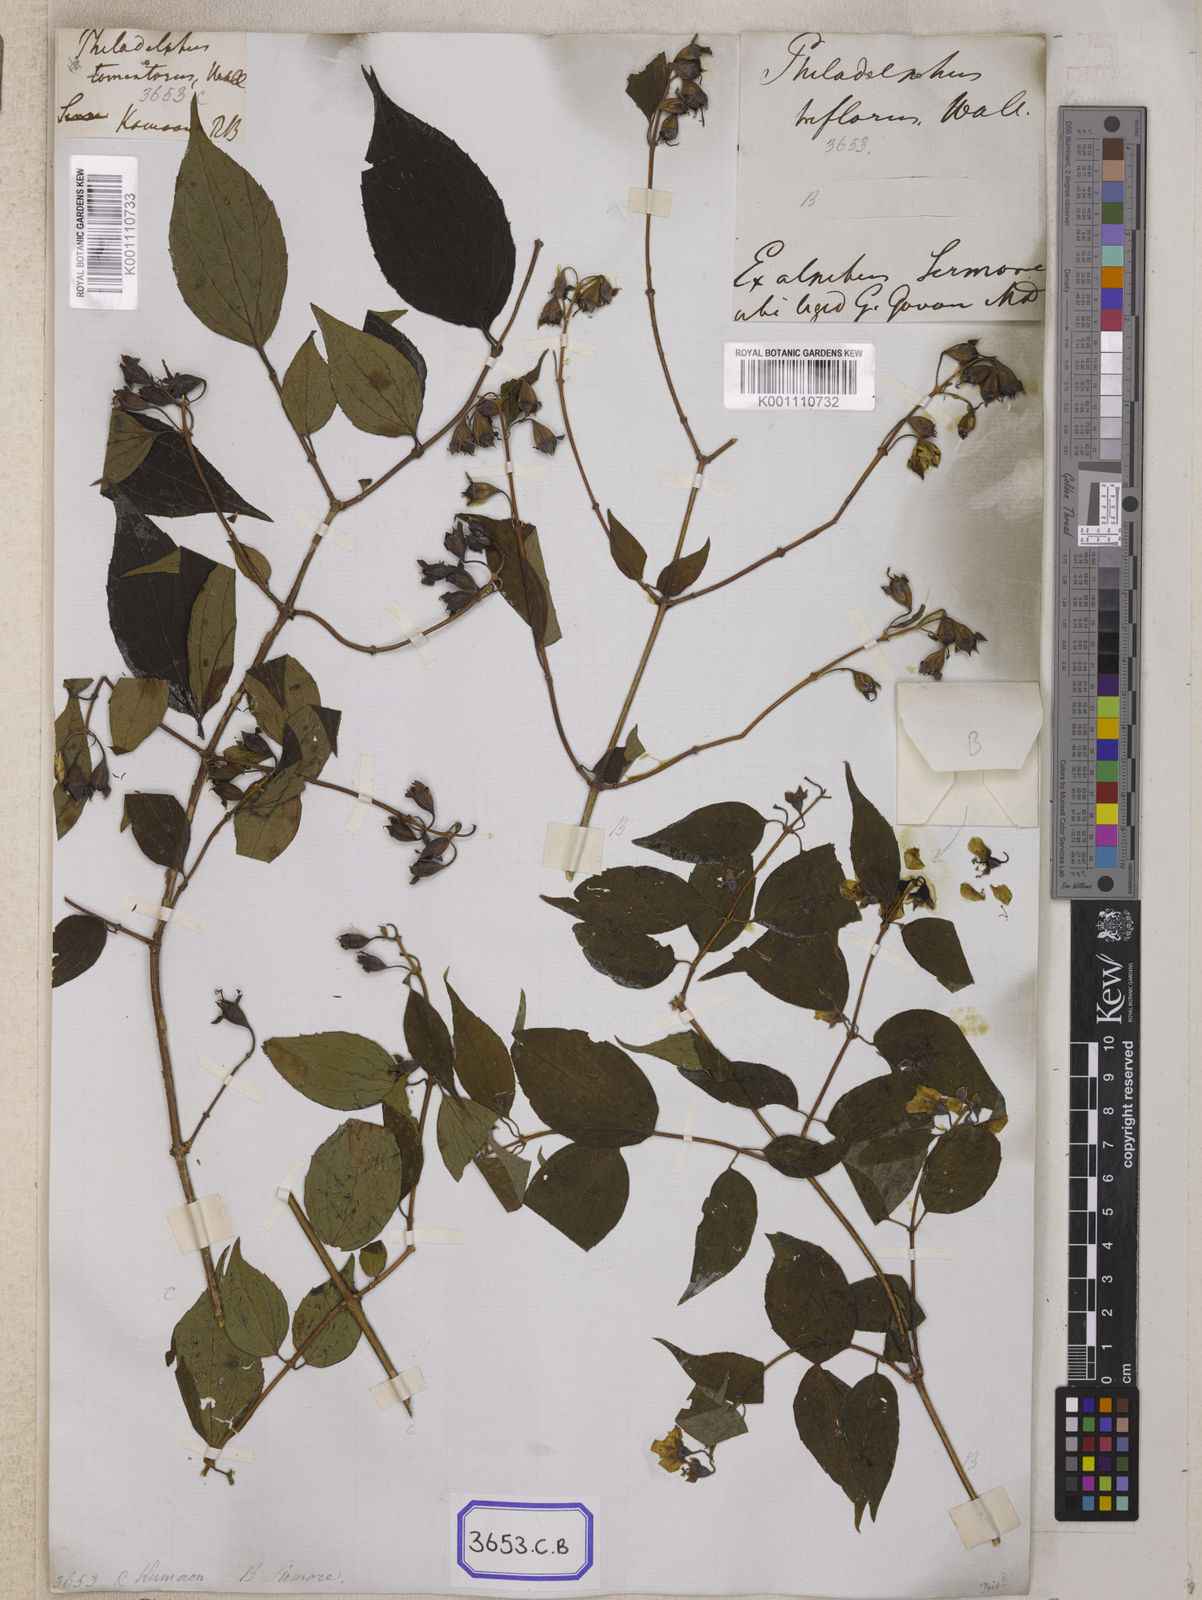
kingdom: Plantae
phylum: Tracheophyta
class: Magnoliopsida
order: Cornales
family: Hydrangeaceae
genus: Philadelphus
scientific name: Philadelphus
